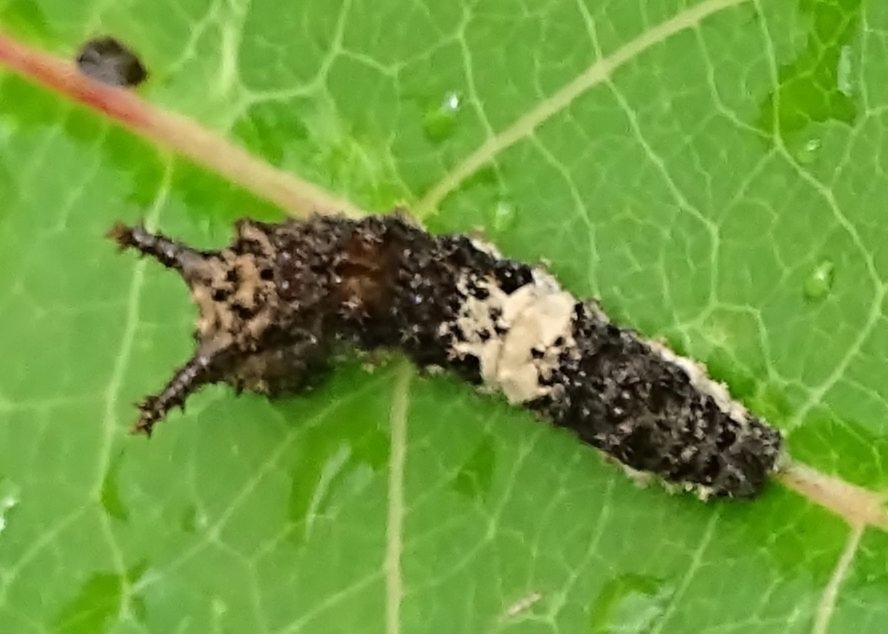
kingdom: Animalia
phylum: Arthropoda
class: Insecta
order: Lepidoptera
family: Nymphalidae
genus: Limenitis
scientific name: Limenitis archippus
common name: Viceroy
